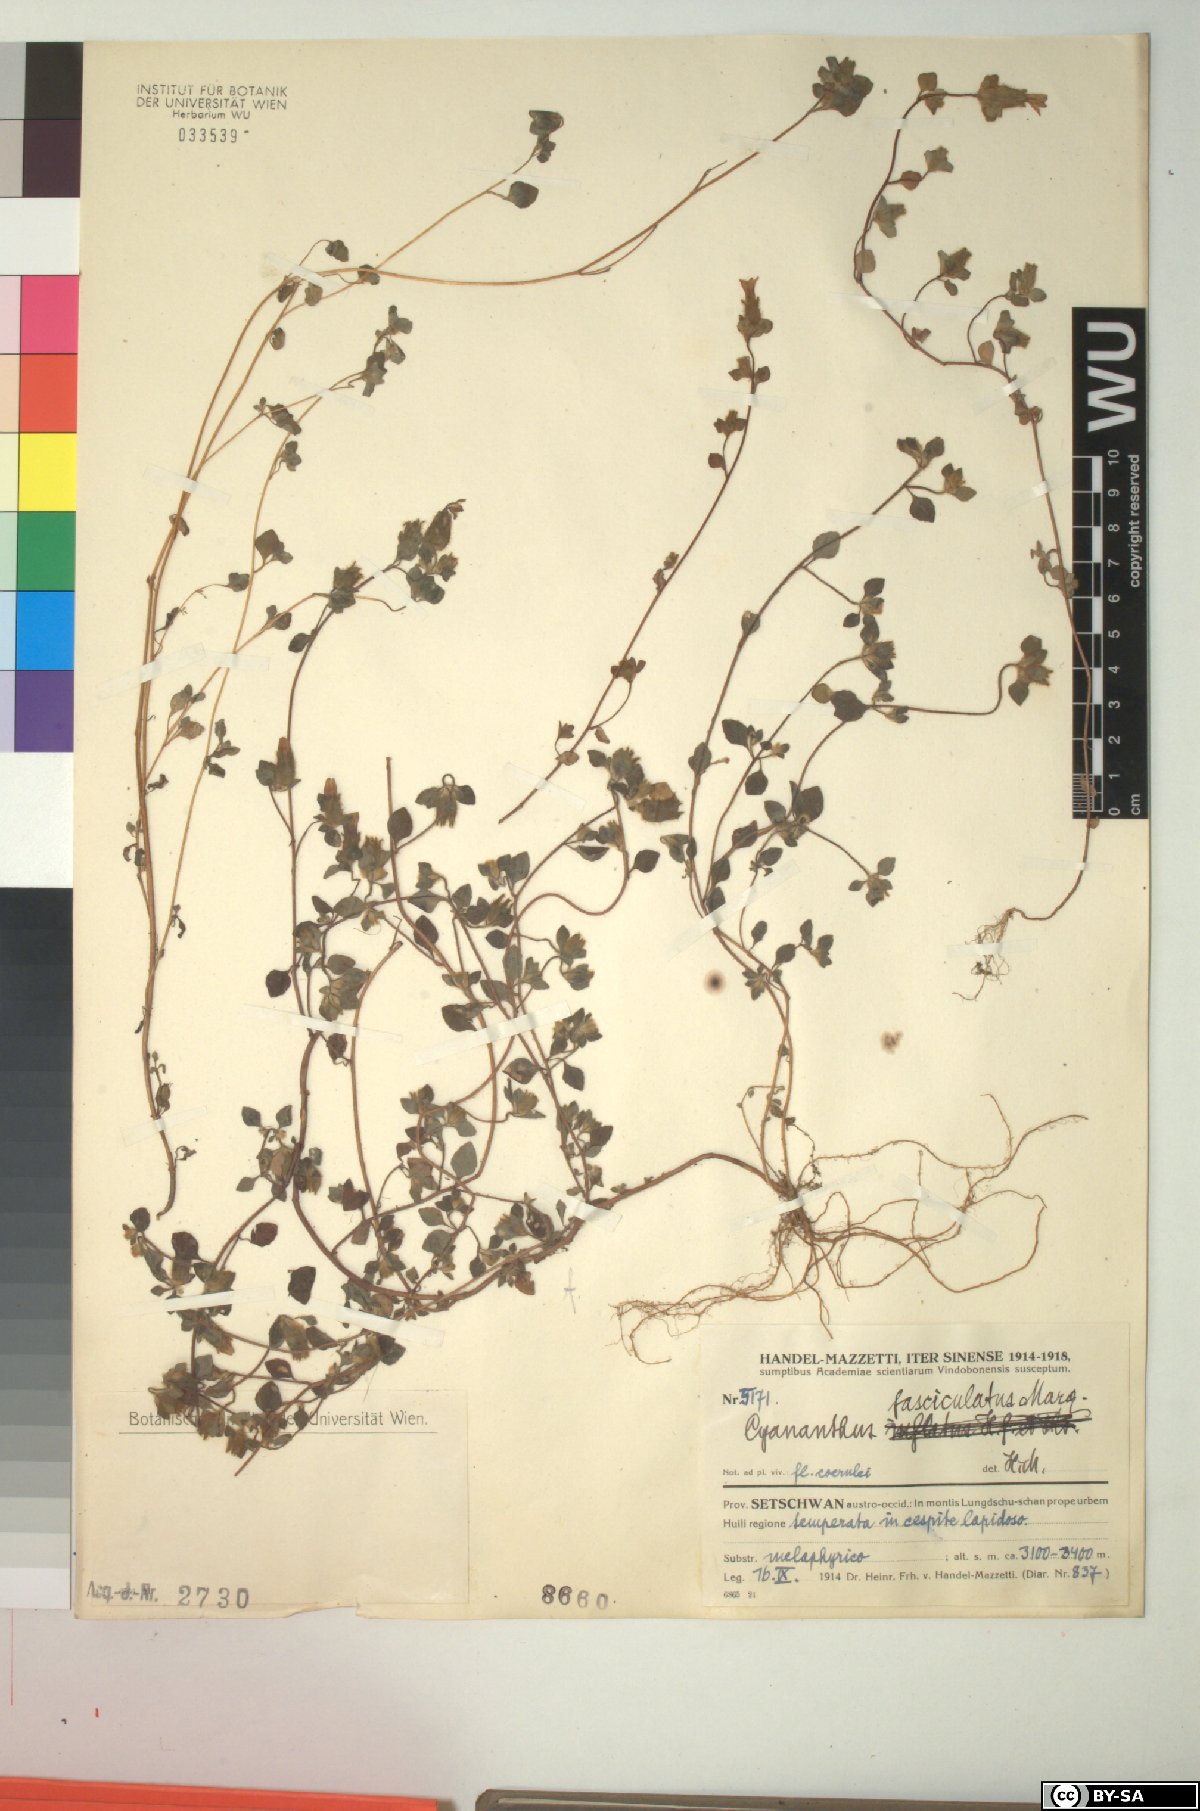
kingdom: Plantae
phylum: Tracheophyta
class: Magnoliopsida
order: Asterales
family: Campanulaceae
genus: Cyananthus
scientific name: Cyananthus fasciculatus
